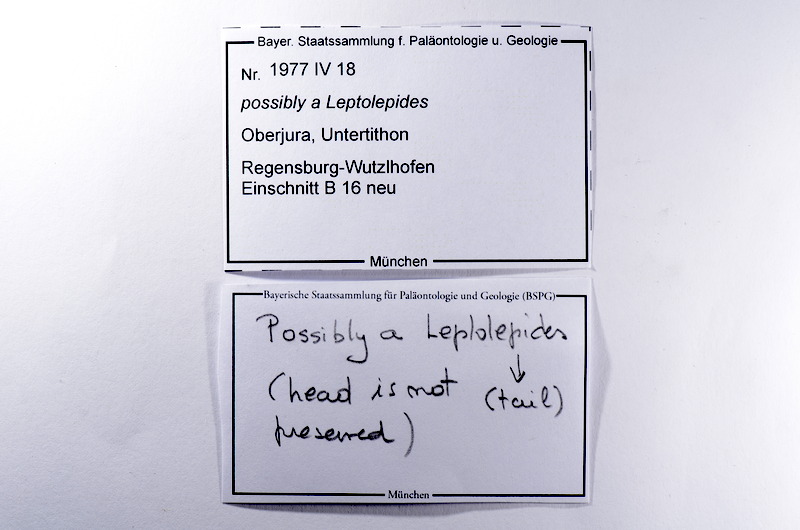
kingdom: Animalia
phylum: Chordata
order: Salmoniformes
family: Orthogonikleithridae
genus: Leptolepides
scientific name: Leptolepides
